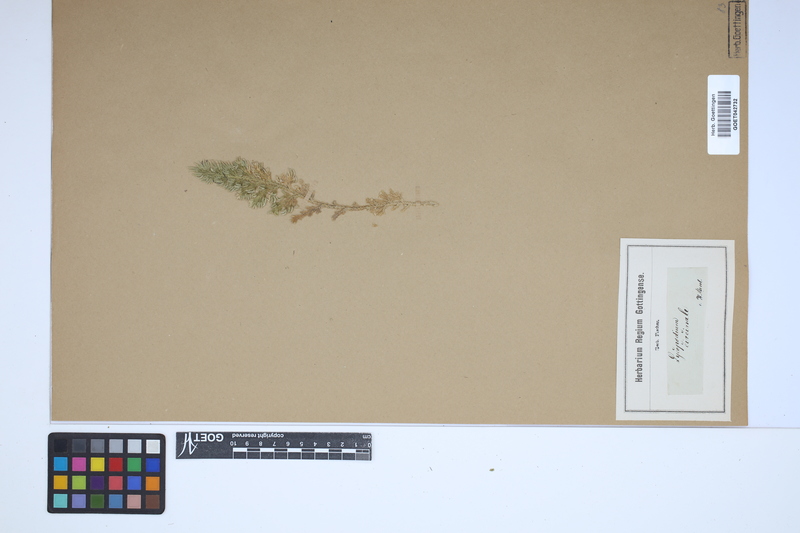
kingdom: Plantae
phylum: Tracheophyta
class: Lycopodiopsida
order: Selaginellales
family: Selaginellaceae
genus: Selaginella
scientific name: Selaginella pallescens
